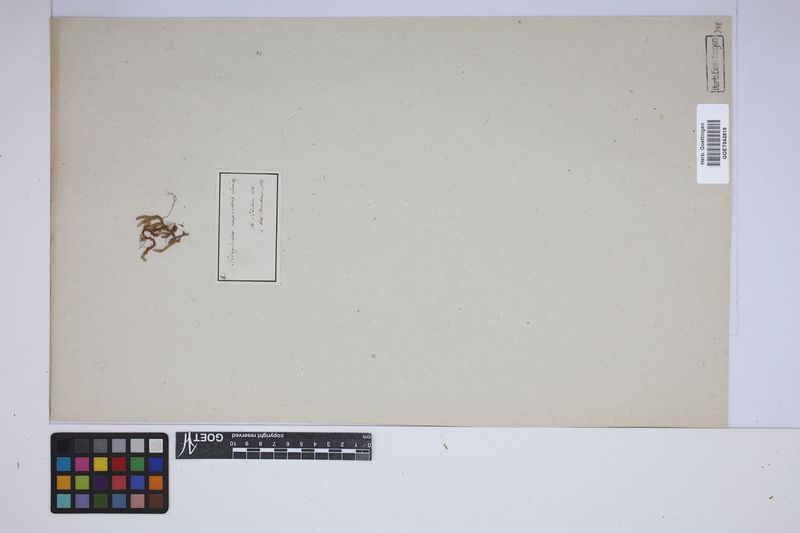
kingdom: Plantae
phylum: Tracheophyta
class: Lycopodiopsida
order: Selaginellales
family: Selaginellaceae
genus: Selaginella
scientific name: Selaginella rupestris
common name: Dwarf spikemoss
